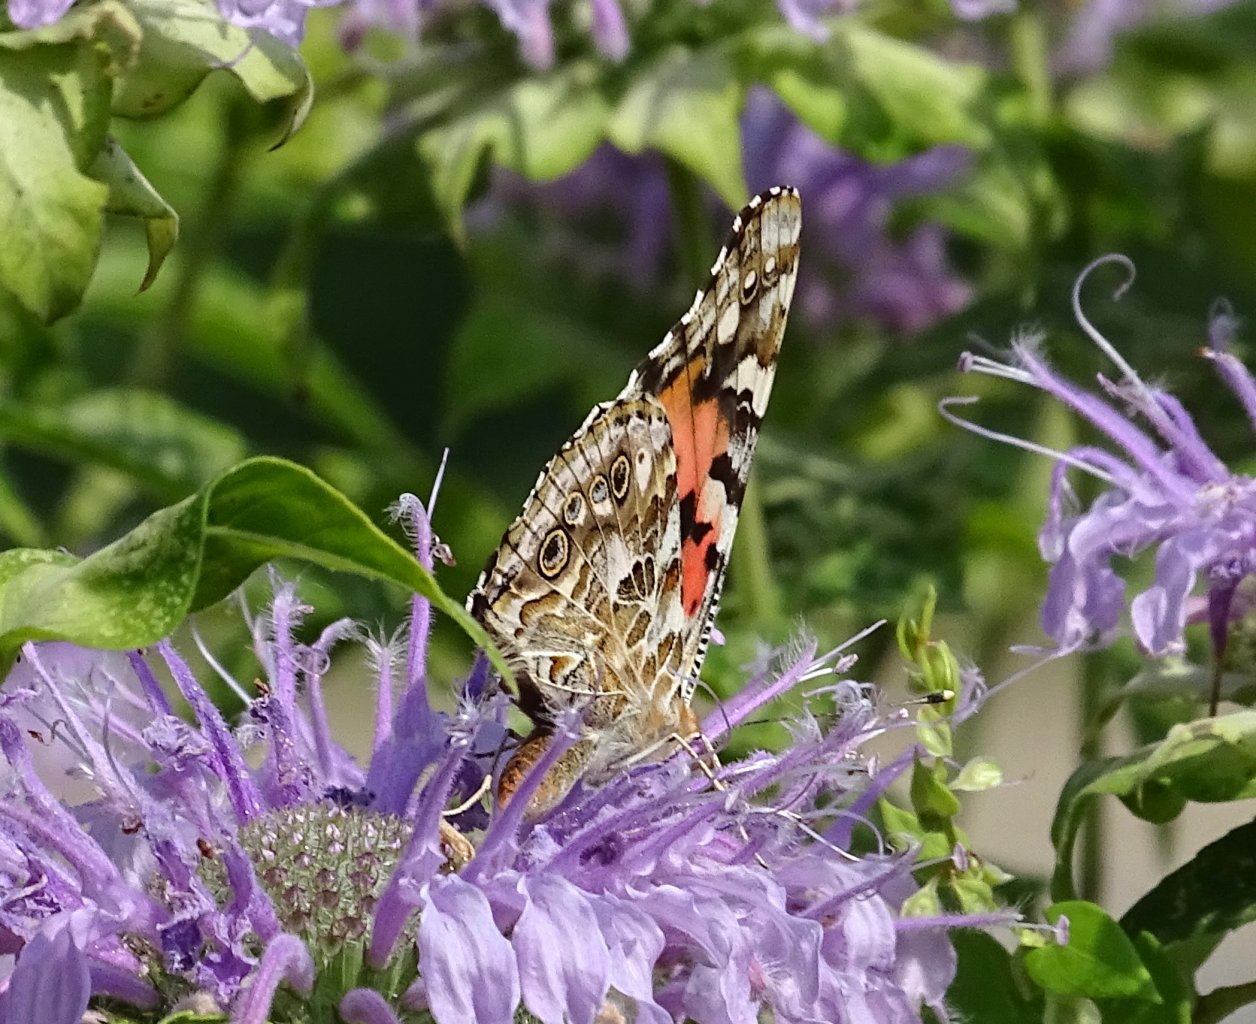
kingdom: Animalia
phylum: Arthropoda
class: Insecta
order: Lepidoptera
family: Nymphalidae
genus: Vanessa
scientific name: Vanessa cardui
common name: Painted Lady
